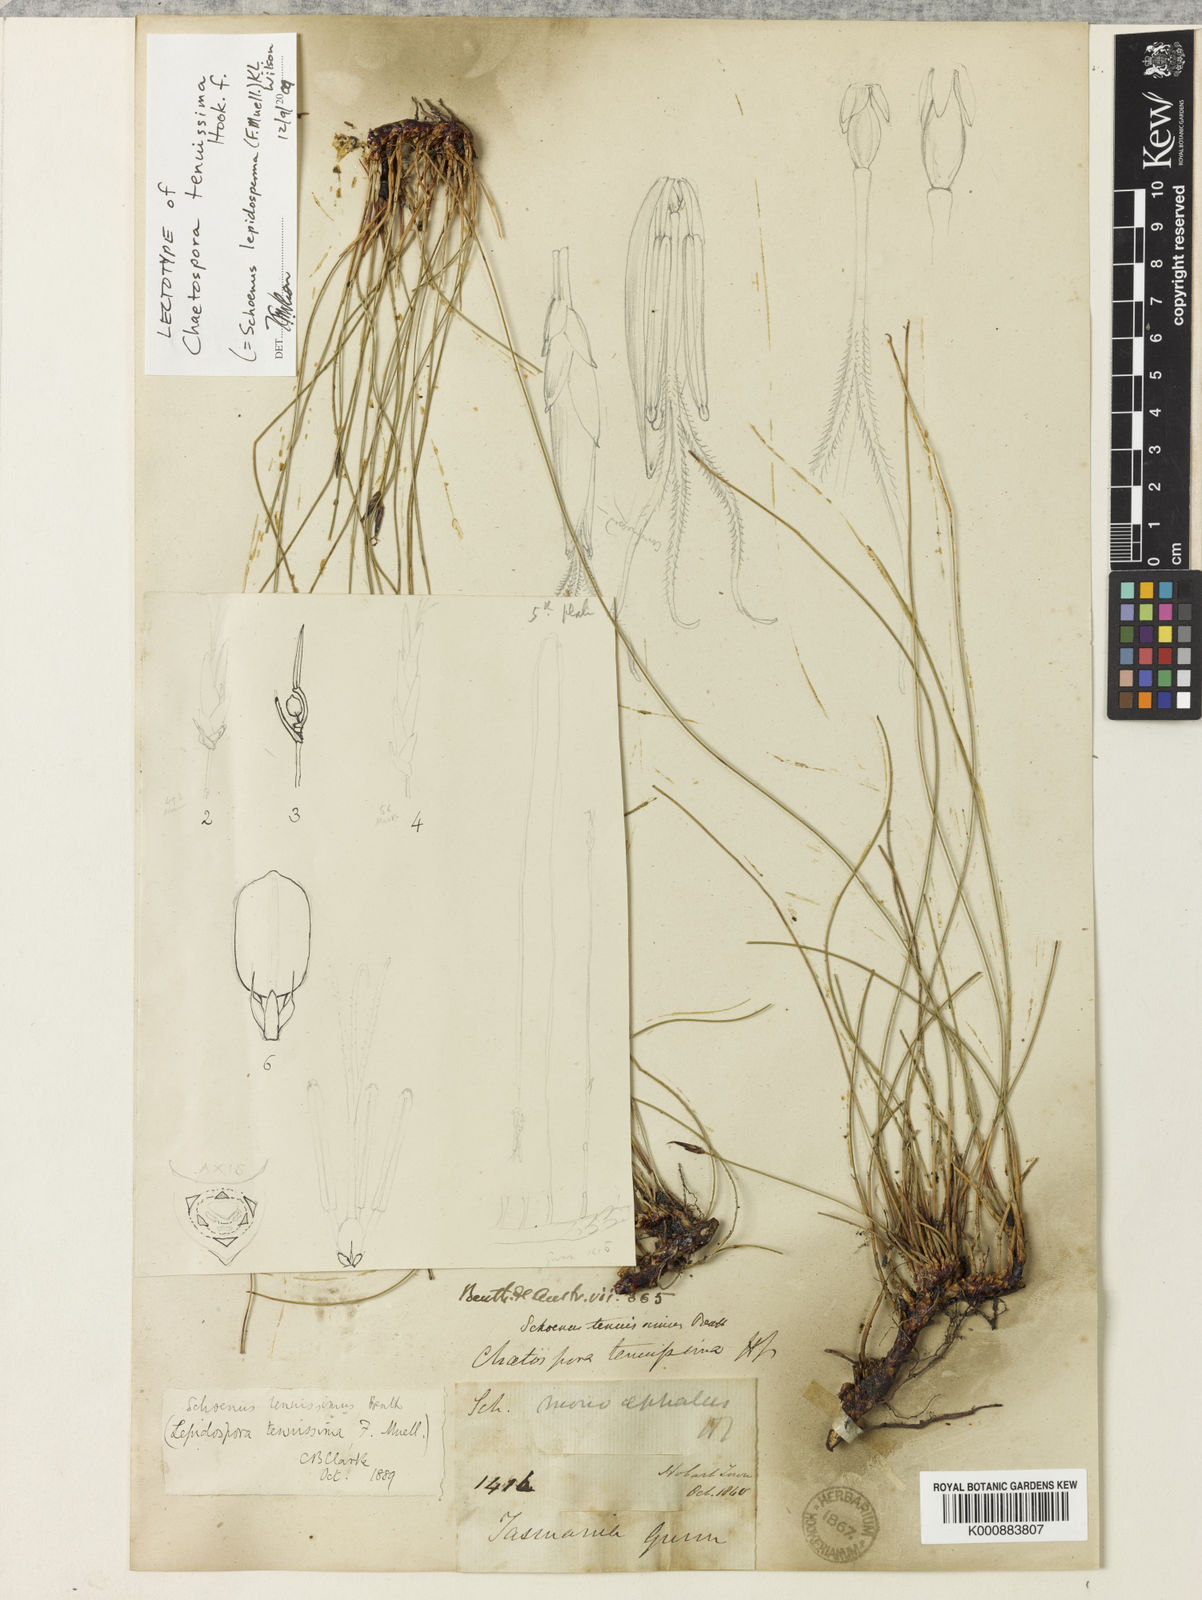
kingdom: Plantae
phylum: Tracheophyta
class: Liliopsida
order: Poales
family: Cyperaceae
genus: Schoenus
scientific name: Schoenus tenuissimus
